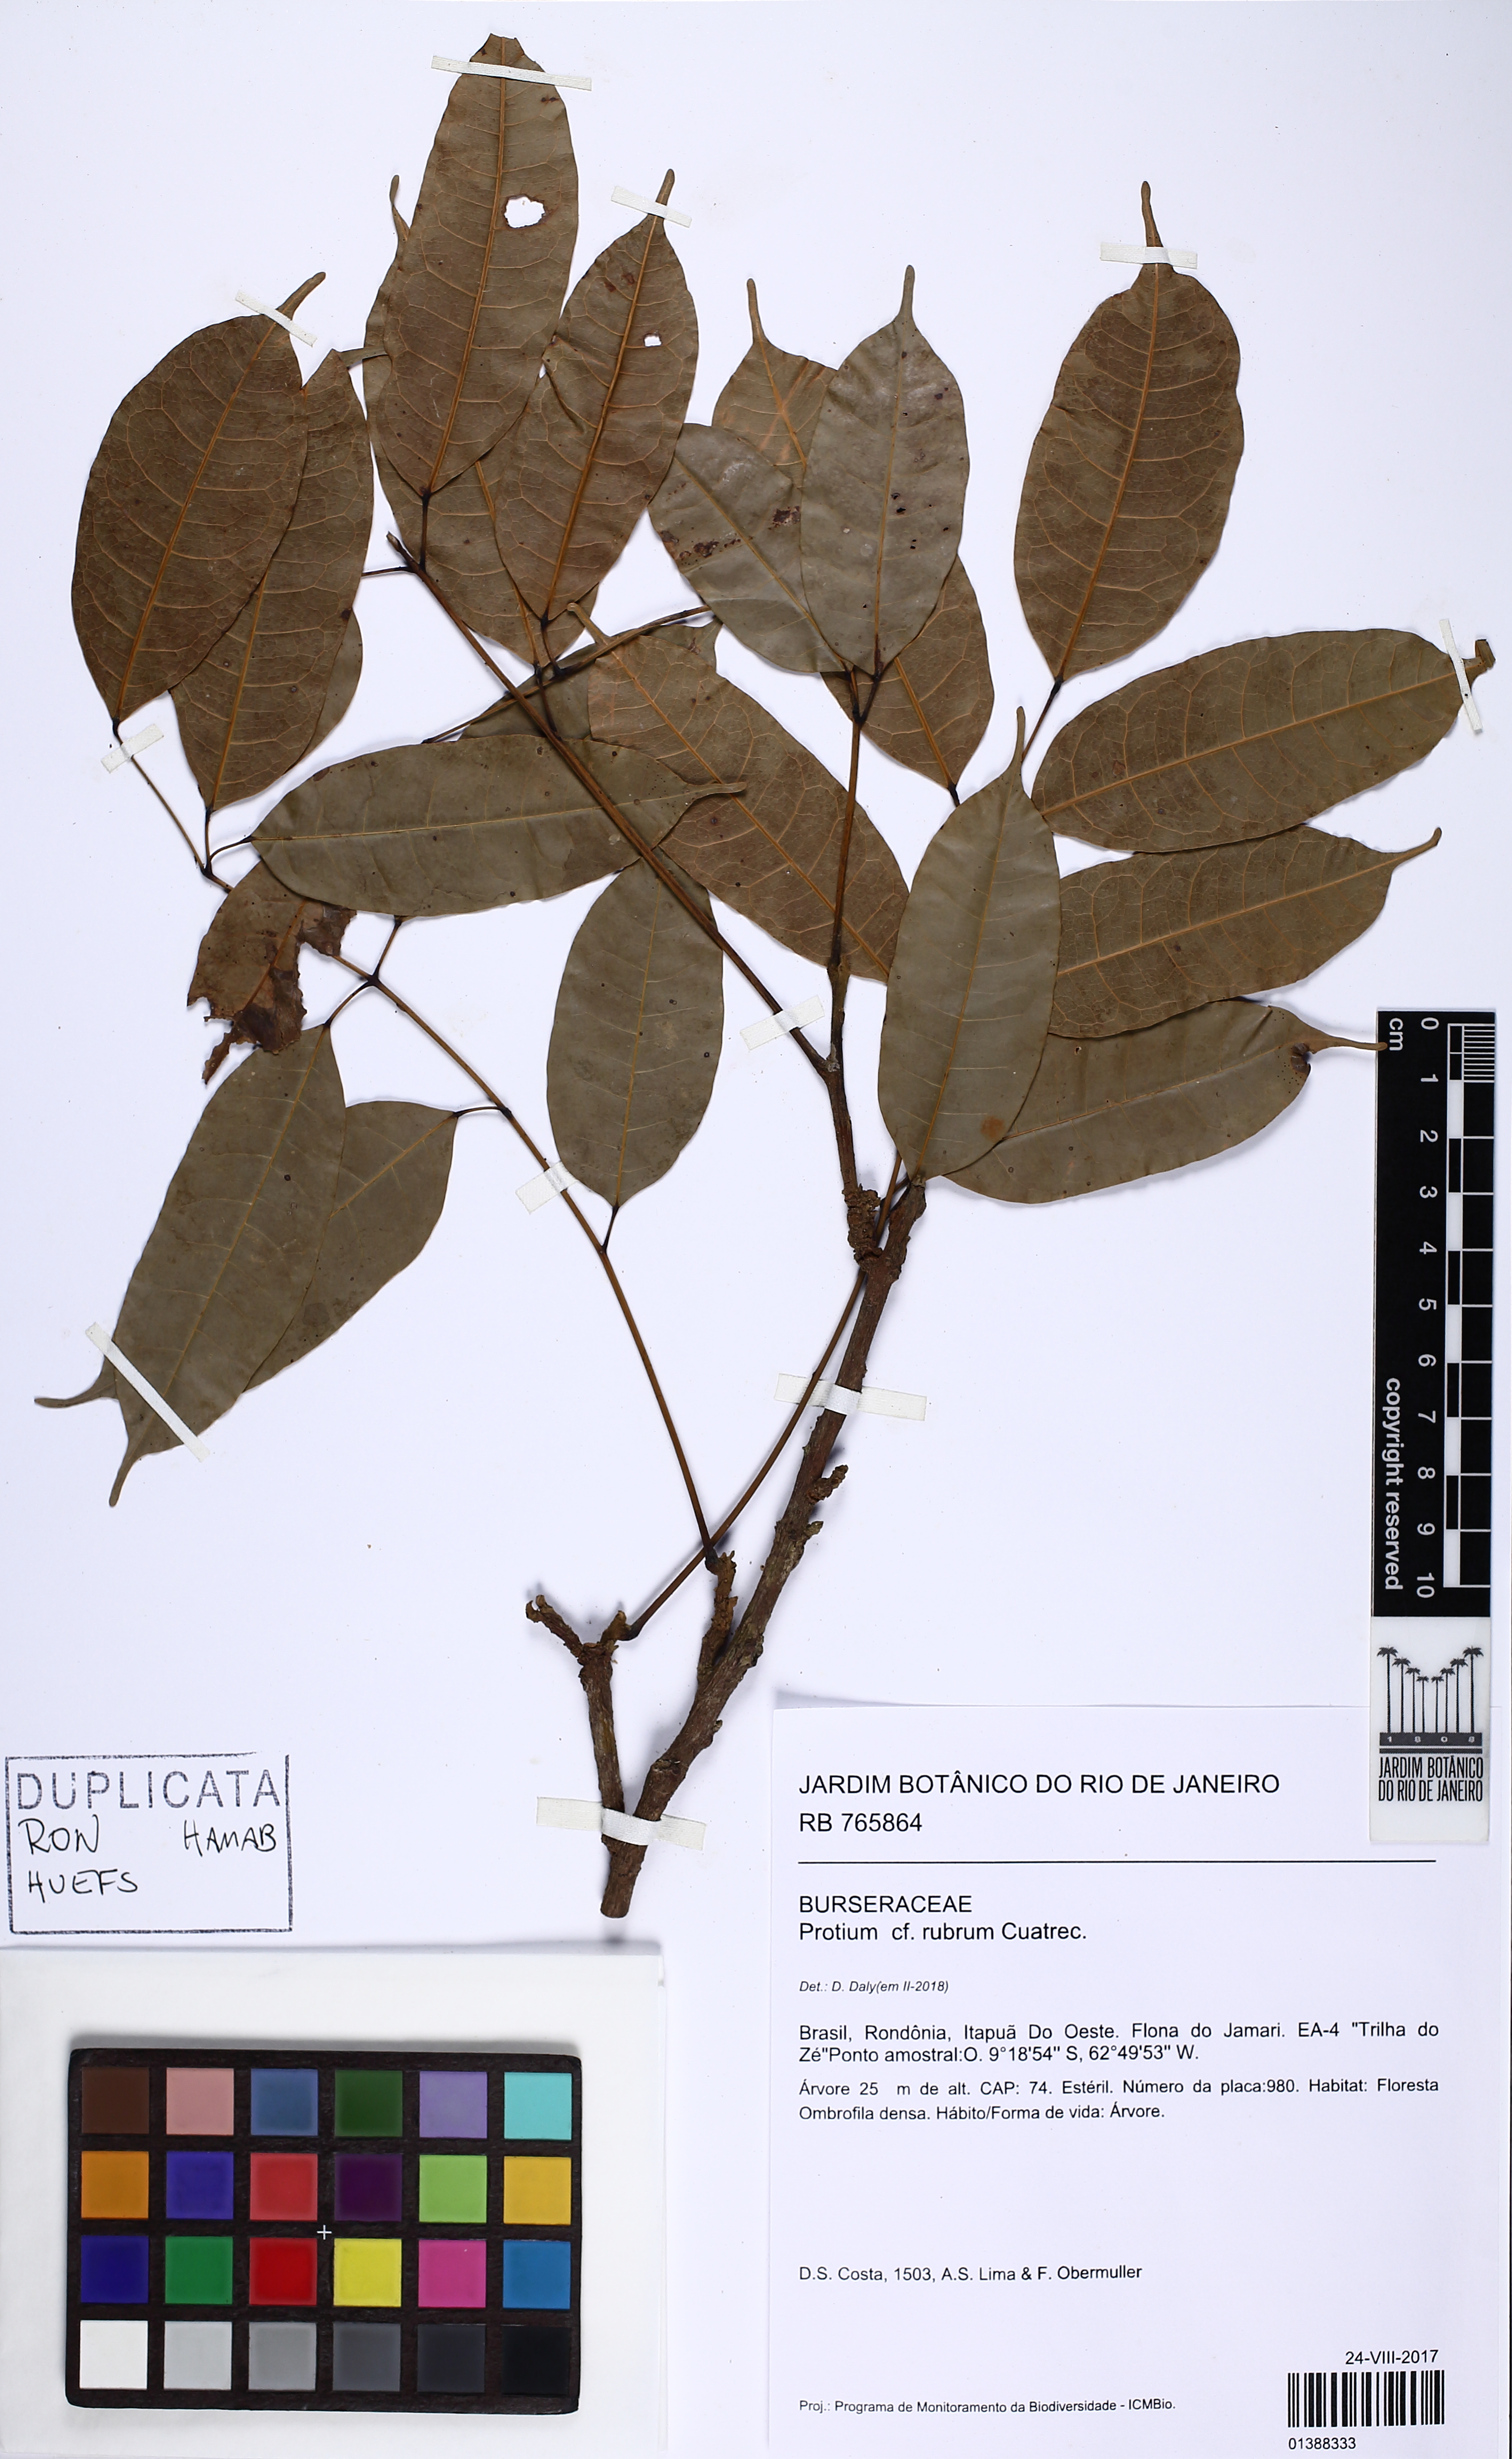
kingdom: Plantae
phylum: Tracheophyta
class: Magnoliopsida
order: Sapindales
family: Burseraceae
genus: Protium
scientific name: Protium rubrum
